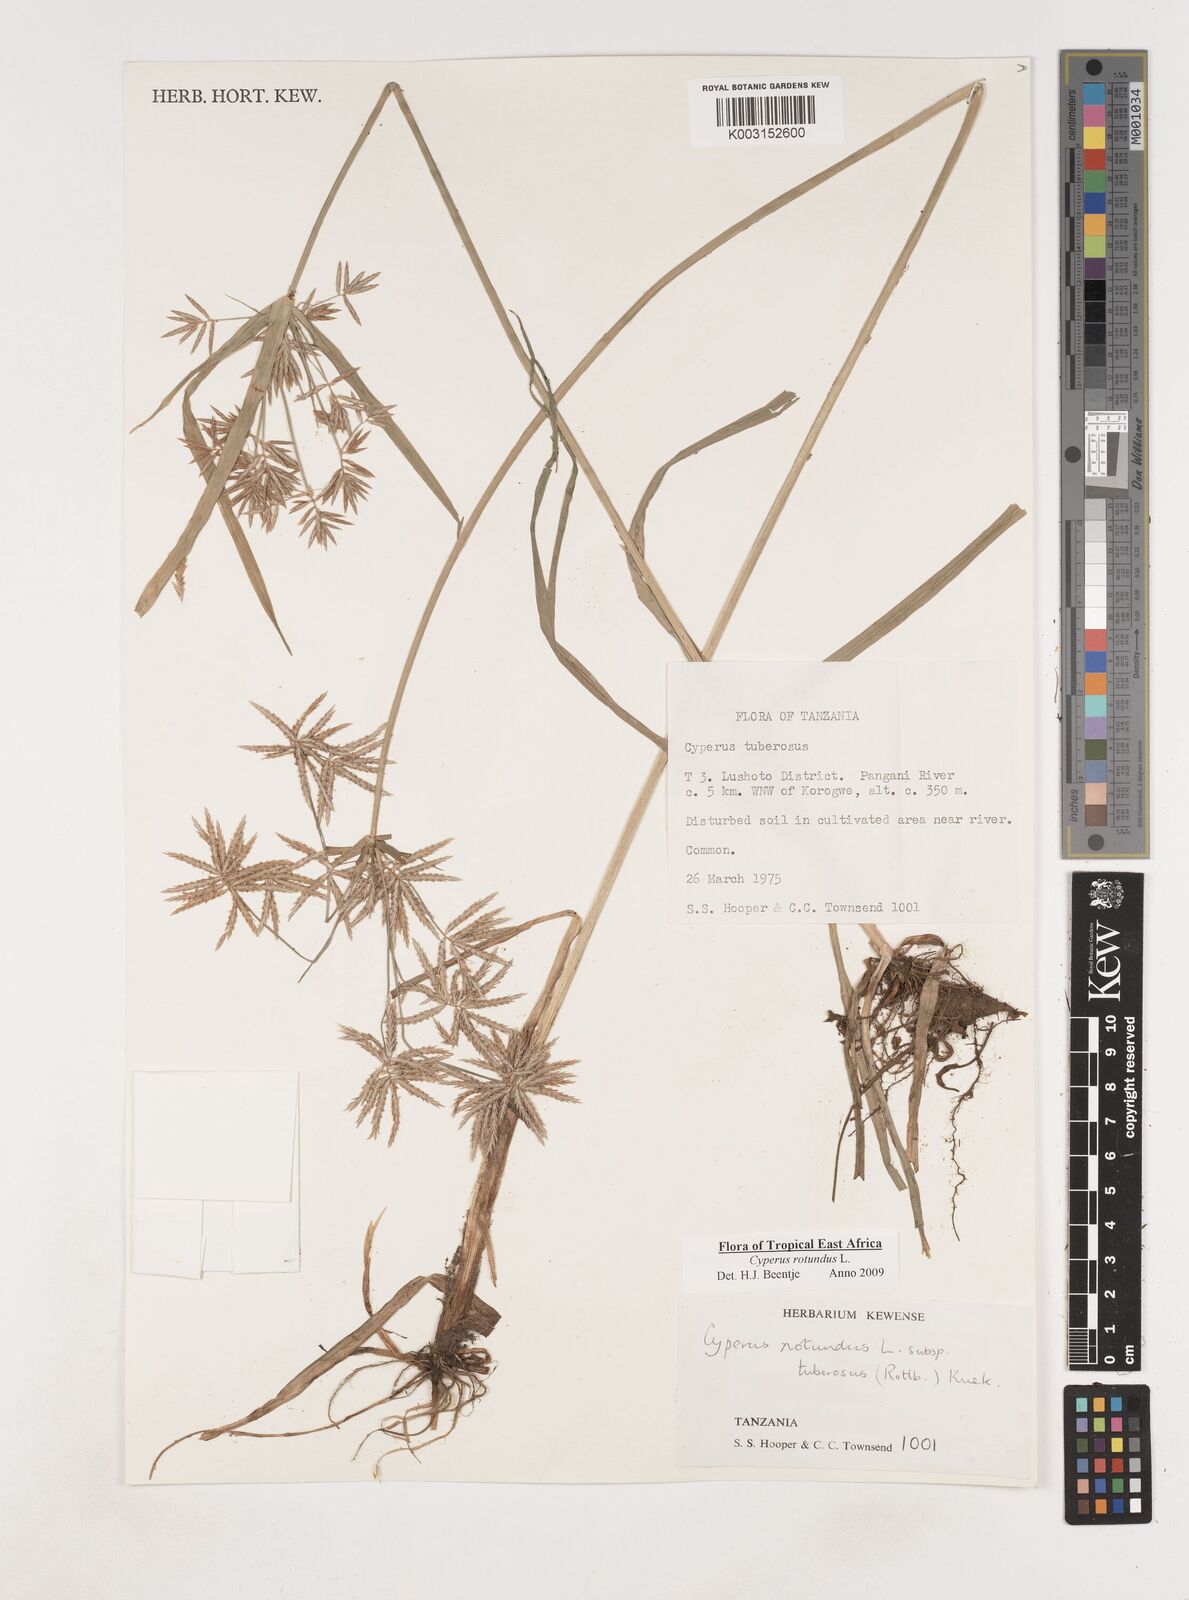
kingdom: Plantae
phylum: Tracheophyta
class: Liliopsida
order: Poales
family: Cyperaceae
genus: Cyperus
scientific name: Cyperus tuberosus
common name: Nut grass
